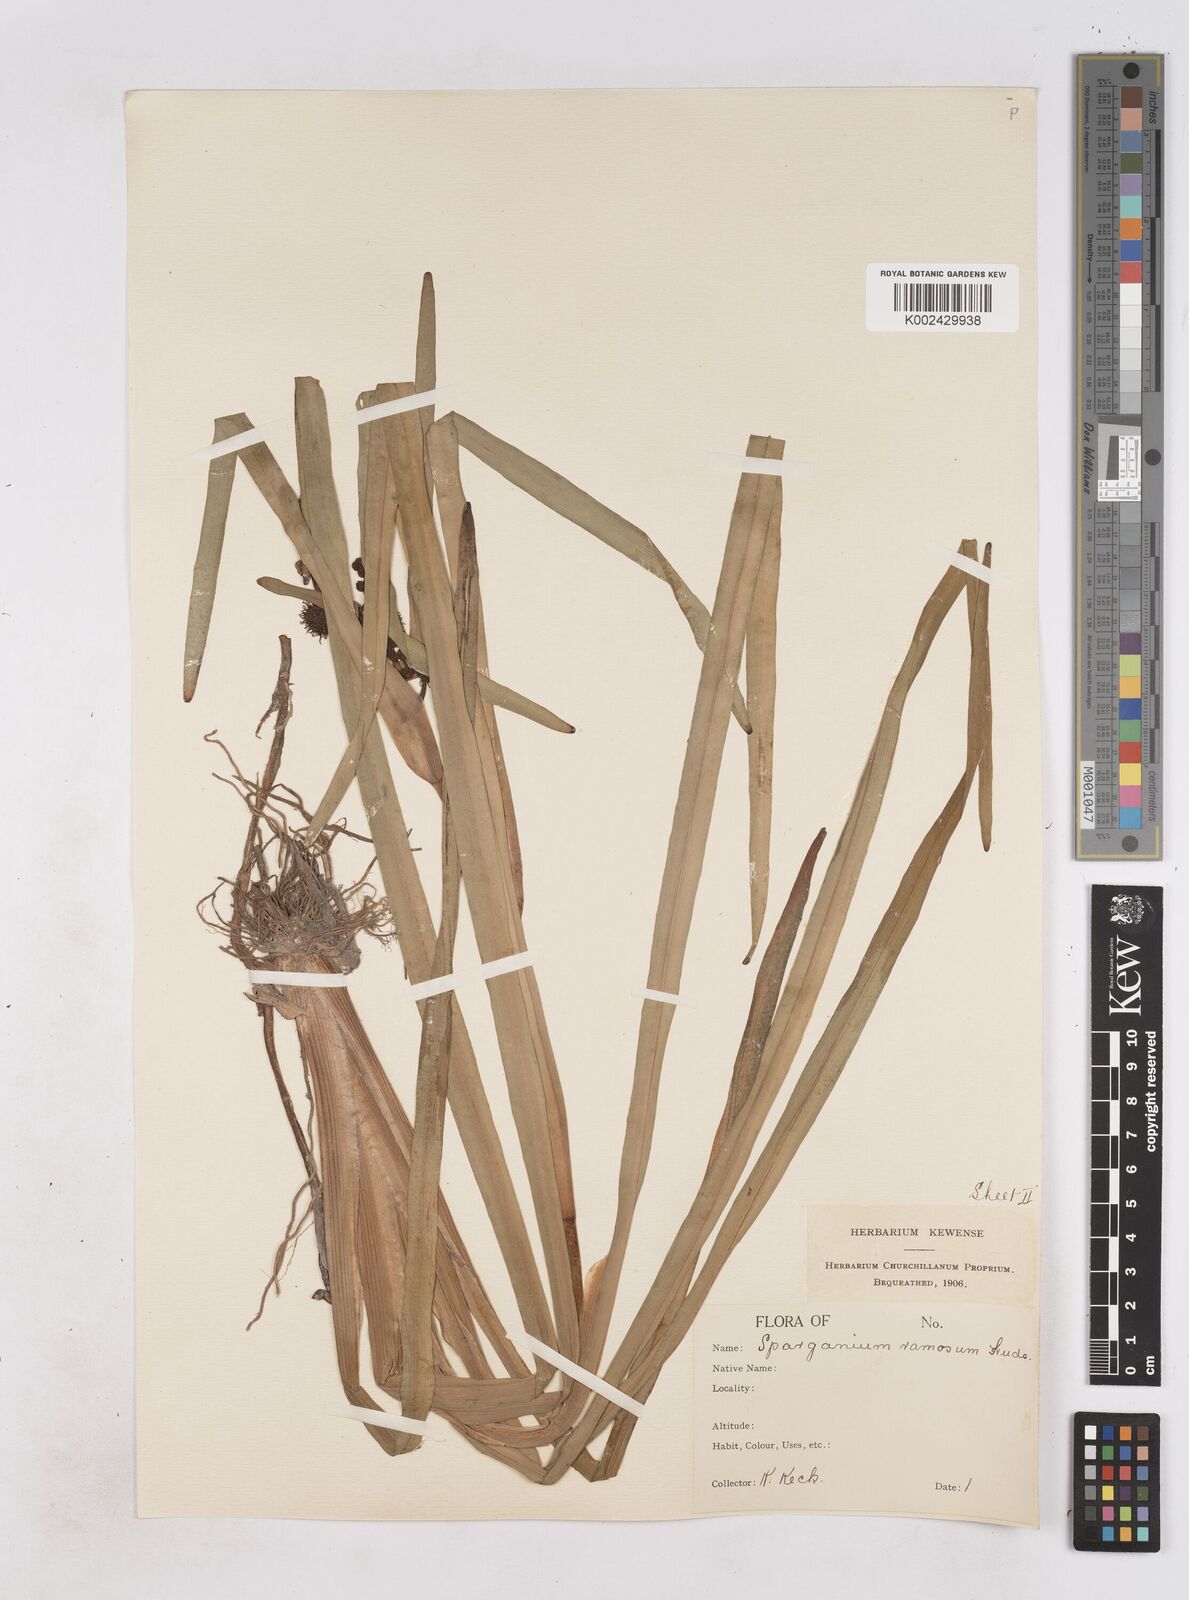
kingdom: Plantae
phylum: Tracheophyta
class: Liliopsida
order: Poales
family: Typhaceae
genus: Sparganium
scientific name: Sparganium erectum
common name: Branched bur-reed
